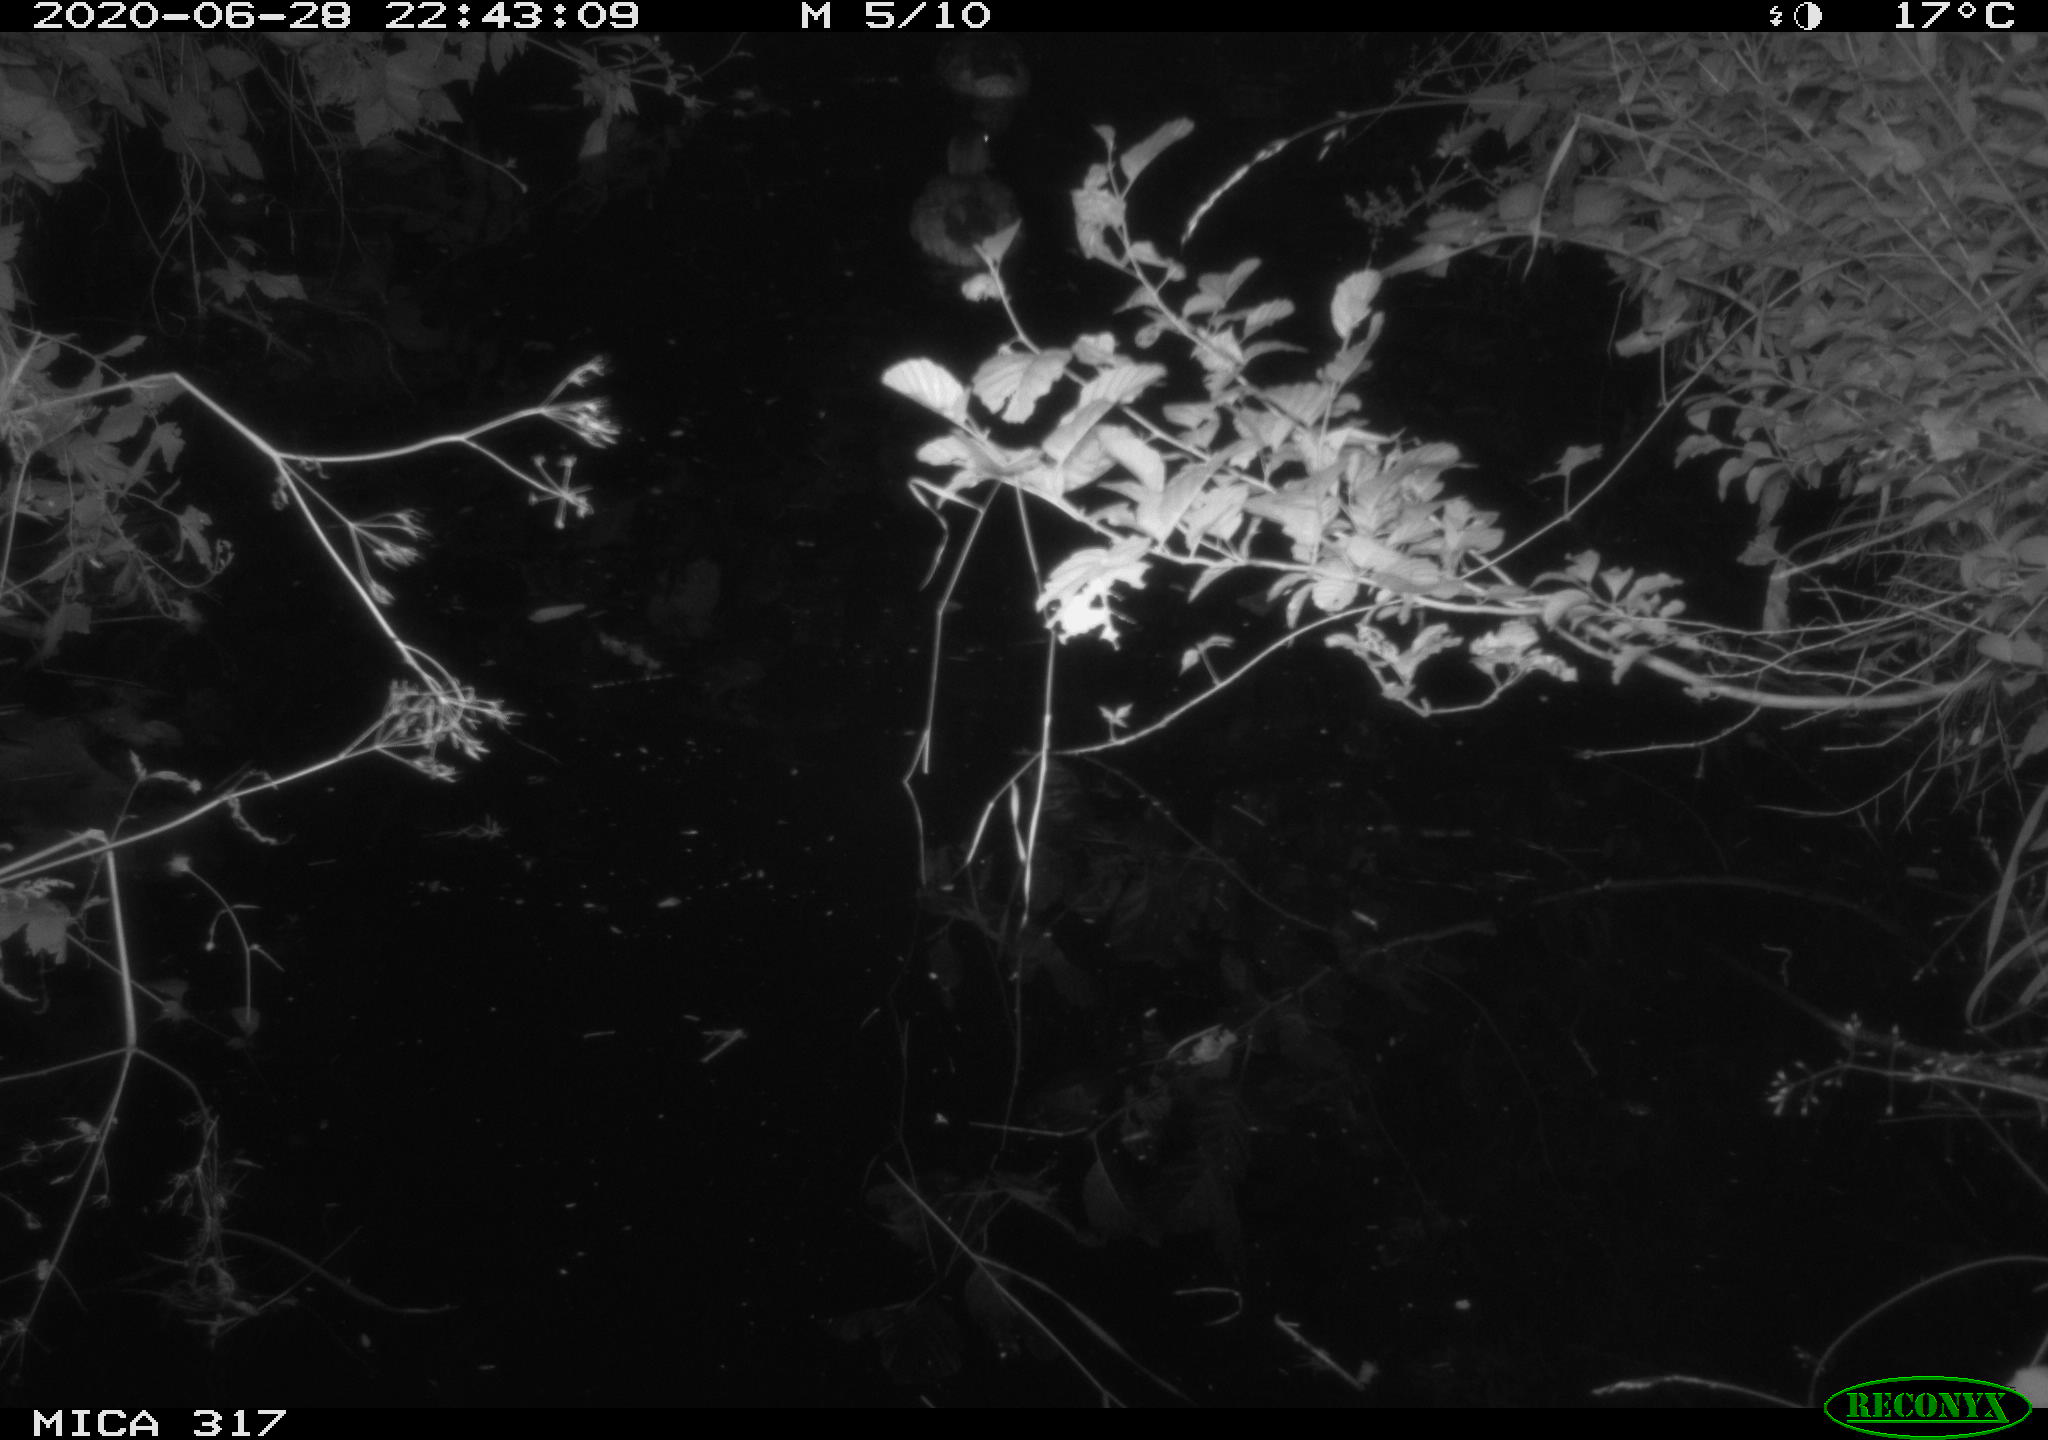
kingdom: Animalia
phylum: Chordata
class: Aves
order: Anseriformes
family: Anatidae
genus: Anas
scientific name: Anas platyrhynchos
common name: Mallard
